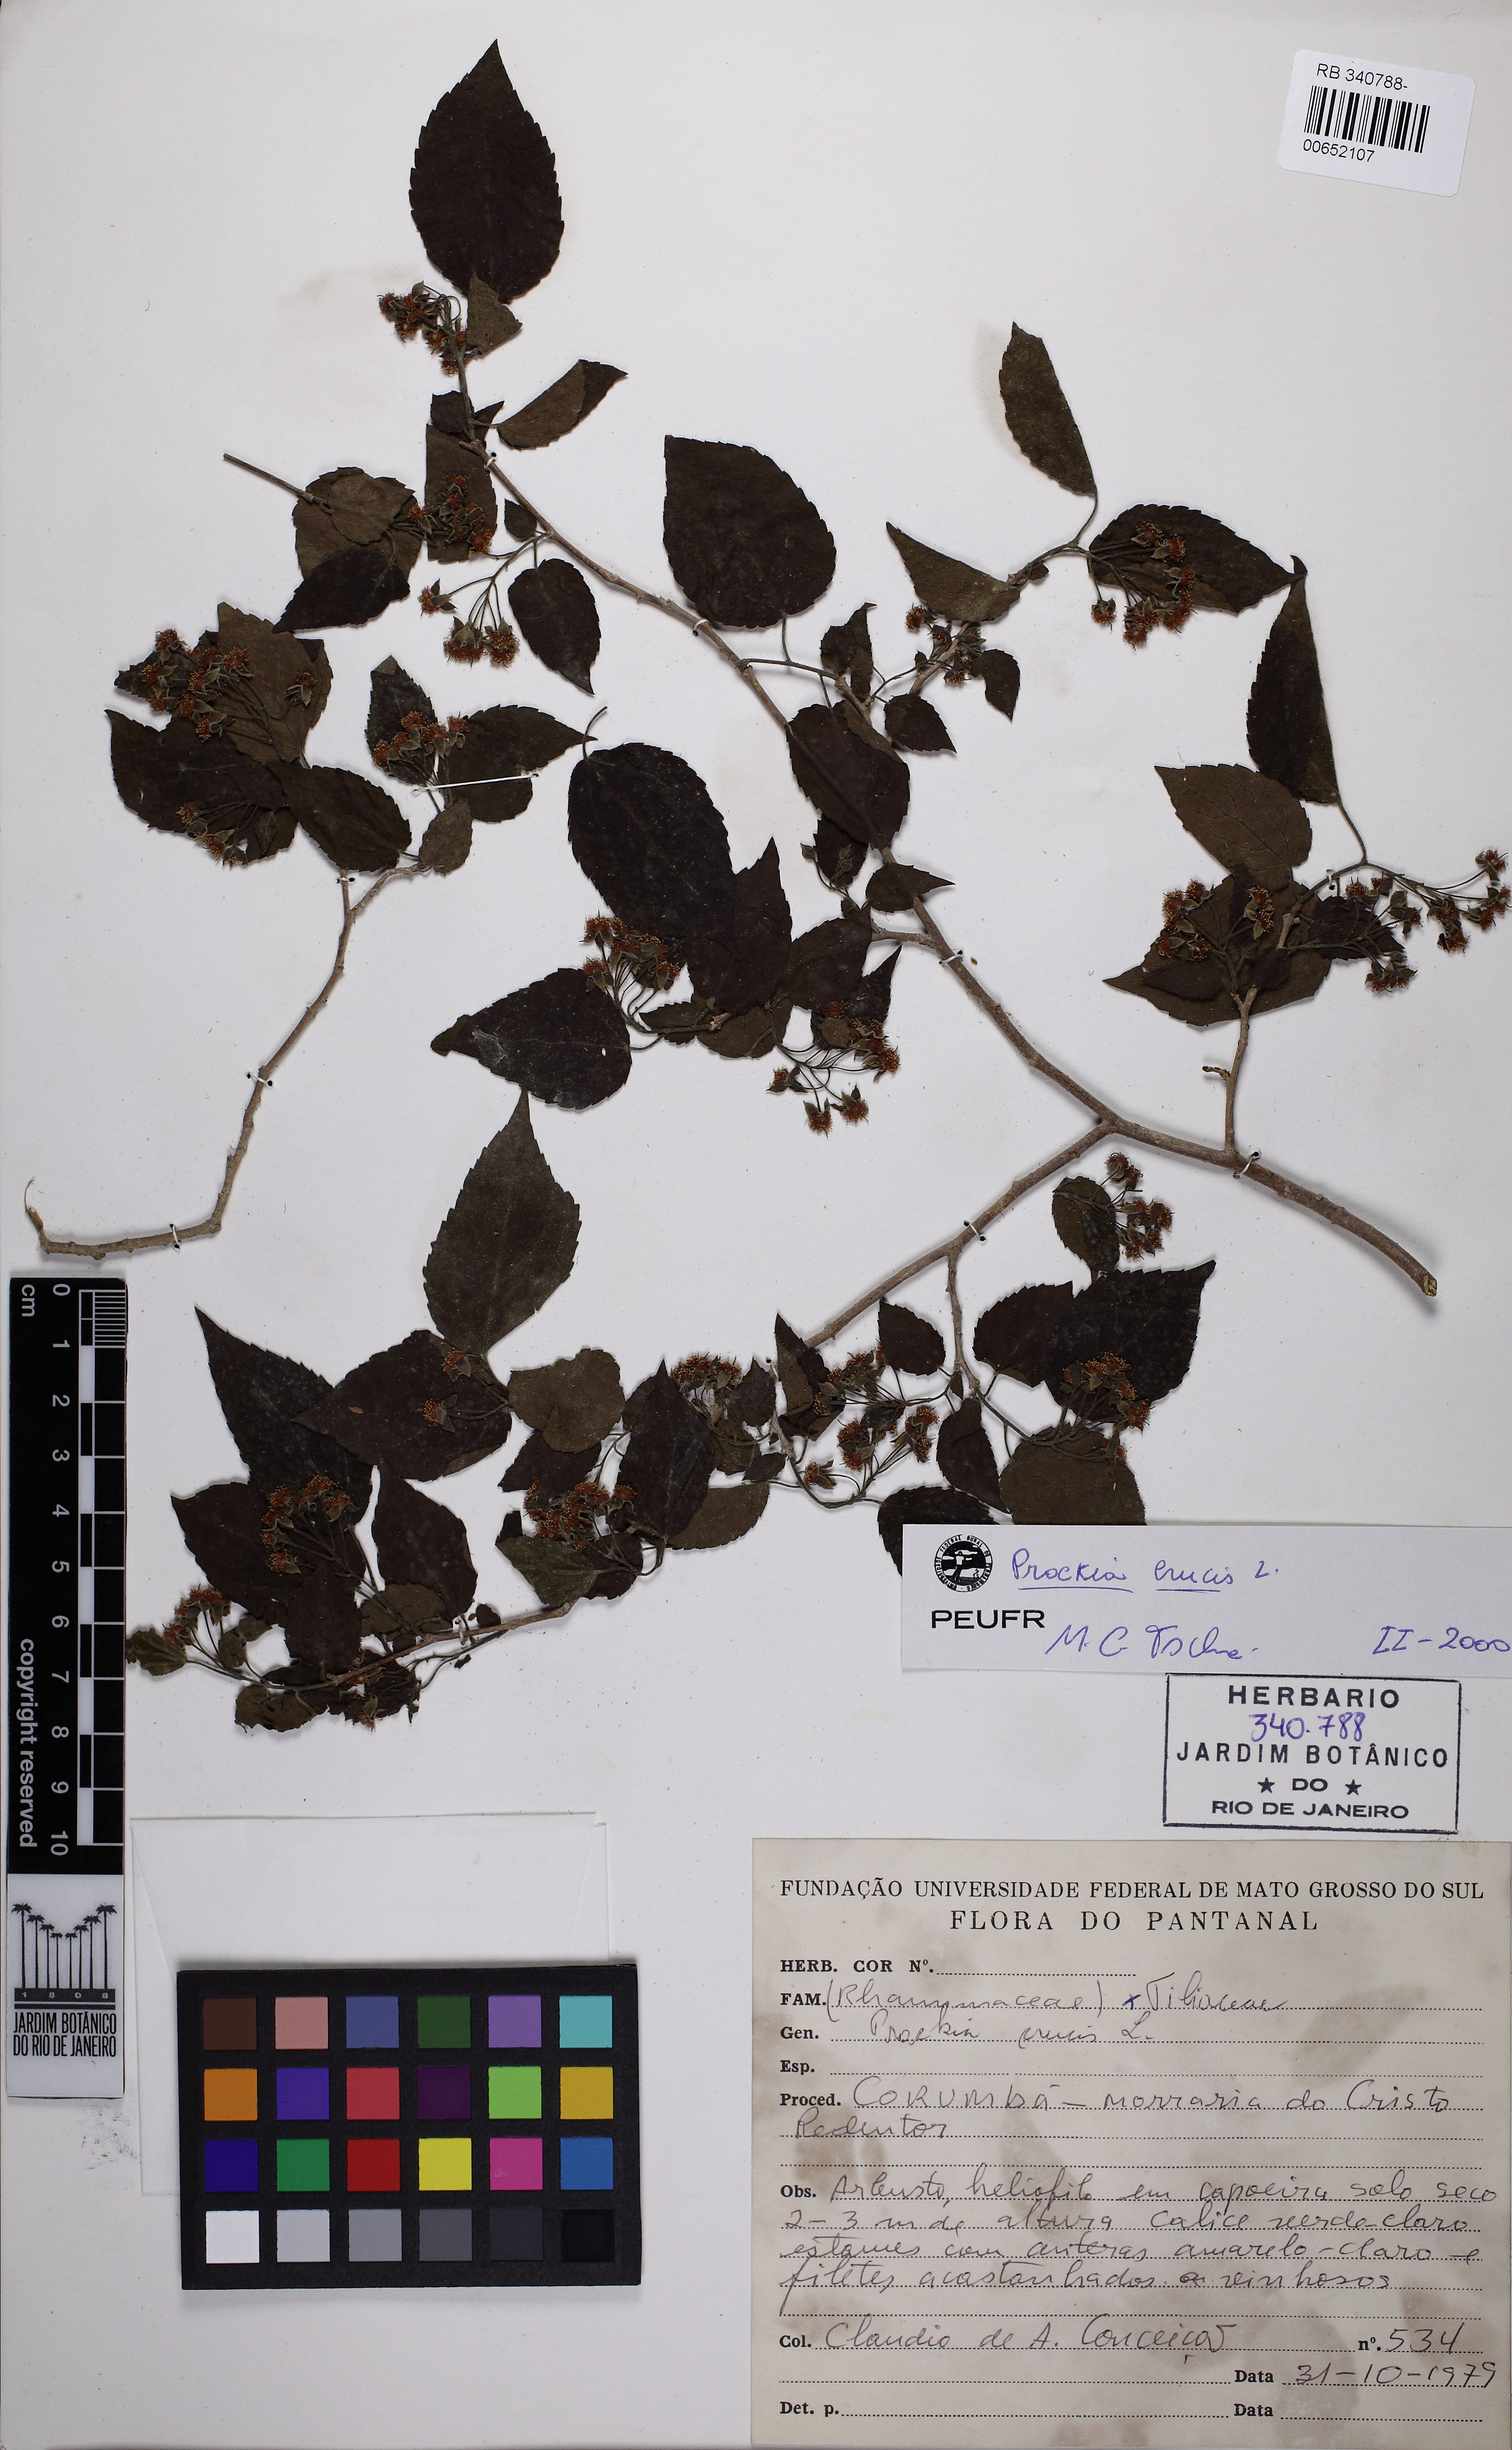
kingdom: Plantae
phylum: Tracheophyta
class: Magnoliopsida
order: Malpighiales
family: Salicaceae
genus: Prockia
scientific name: Prockia crucis
